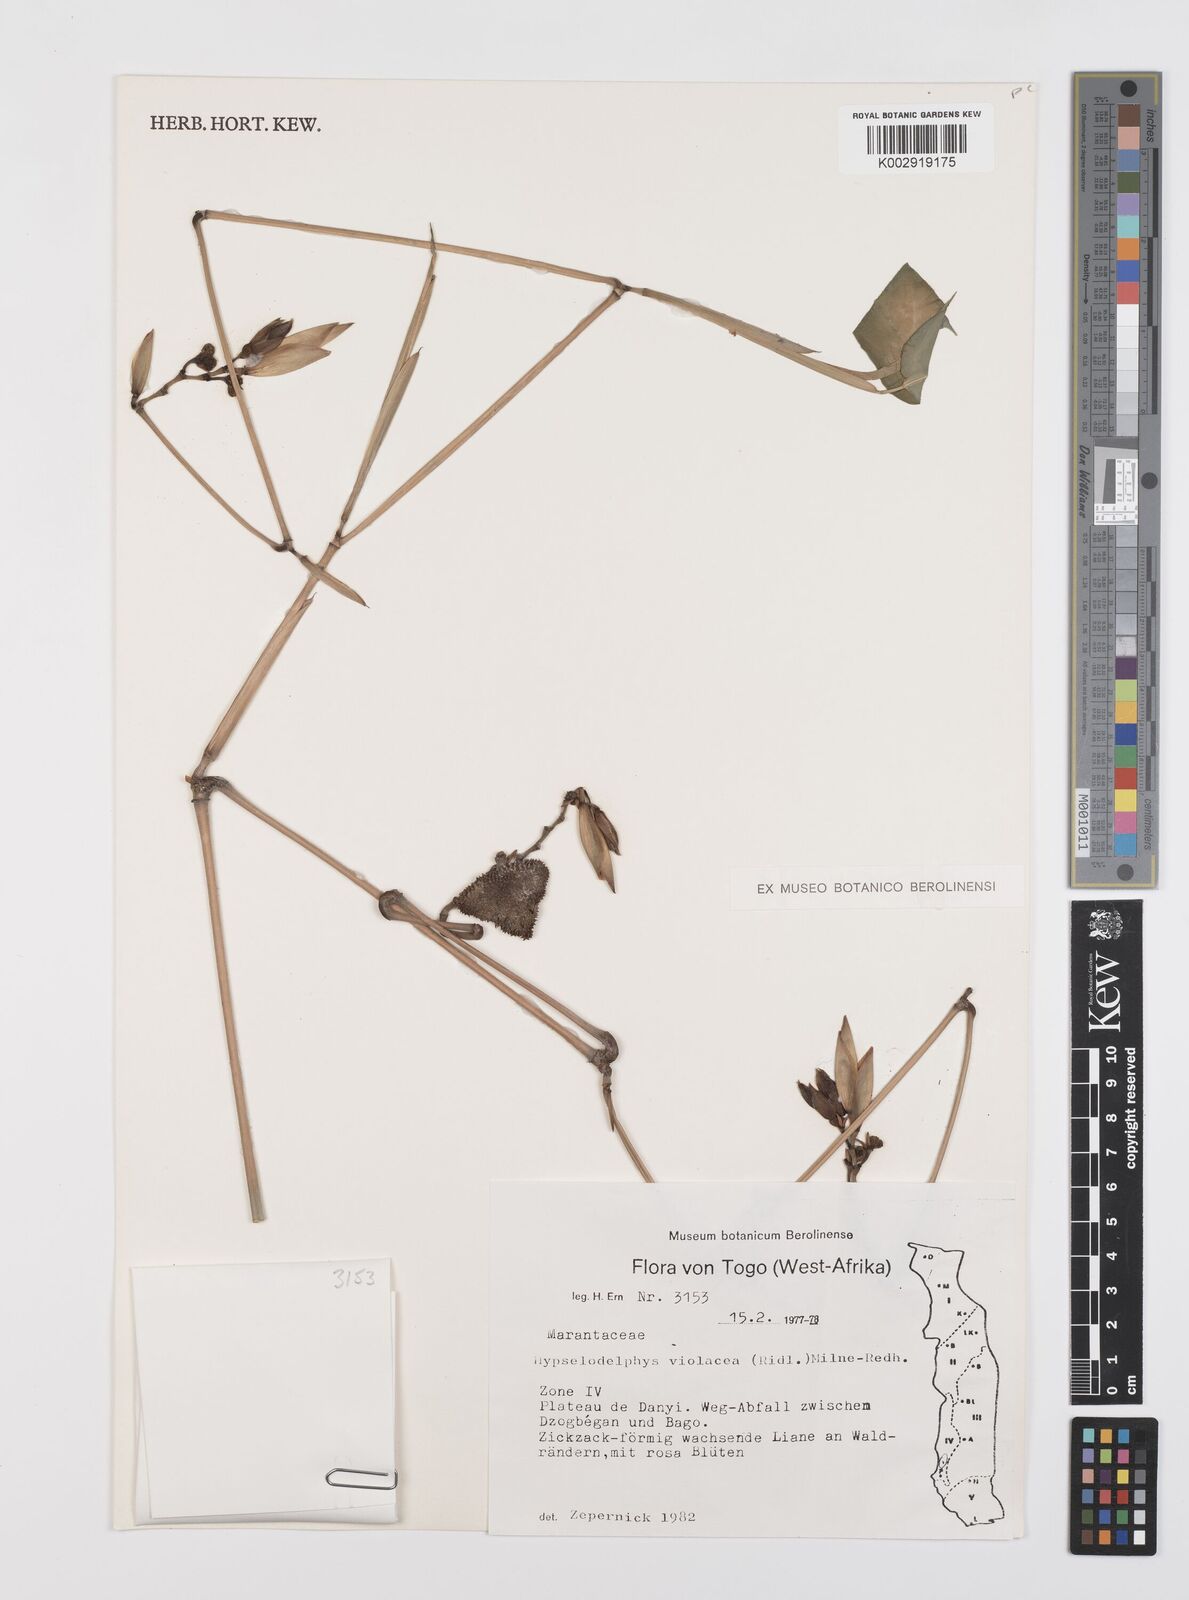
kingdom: Plantae
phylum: Tracheophyta
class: Liliopsida
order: Zingiberales
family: Marantaceae
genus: Hypselodelphys
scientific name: Hypselodelphys violacea
